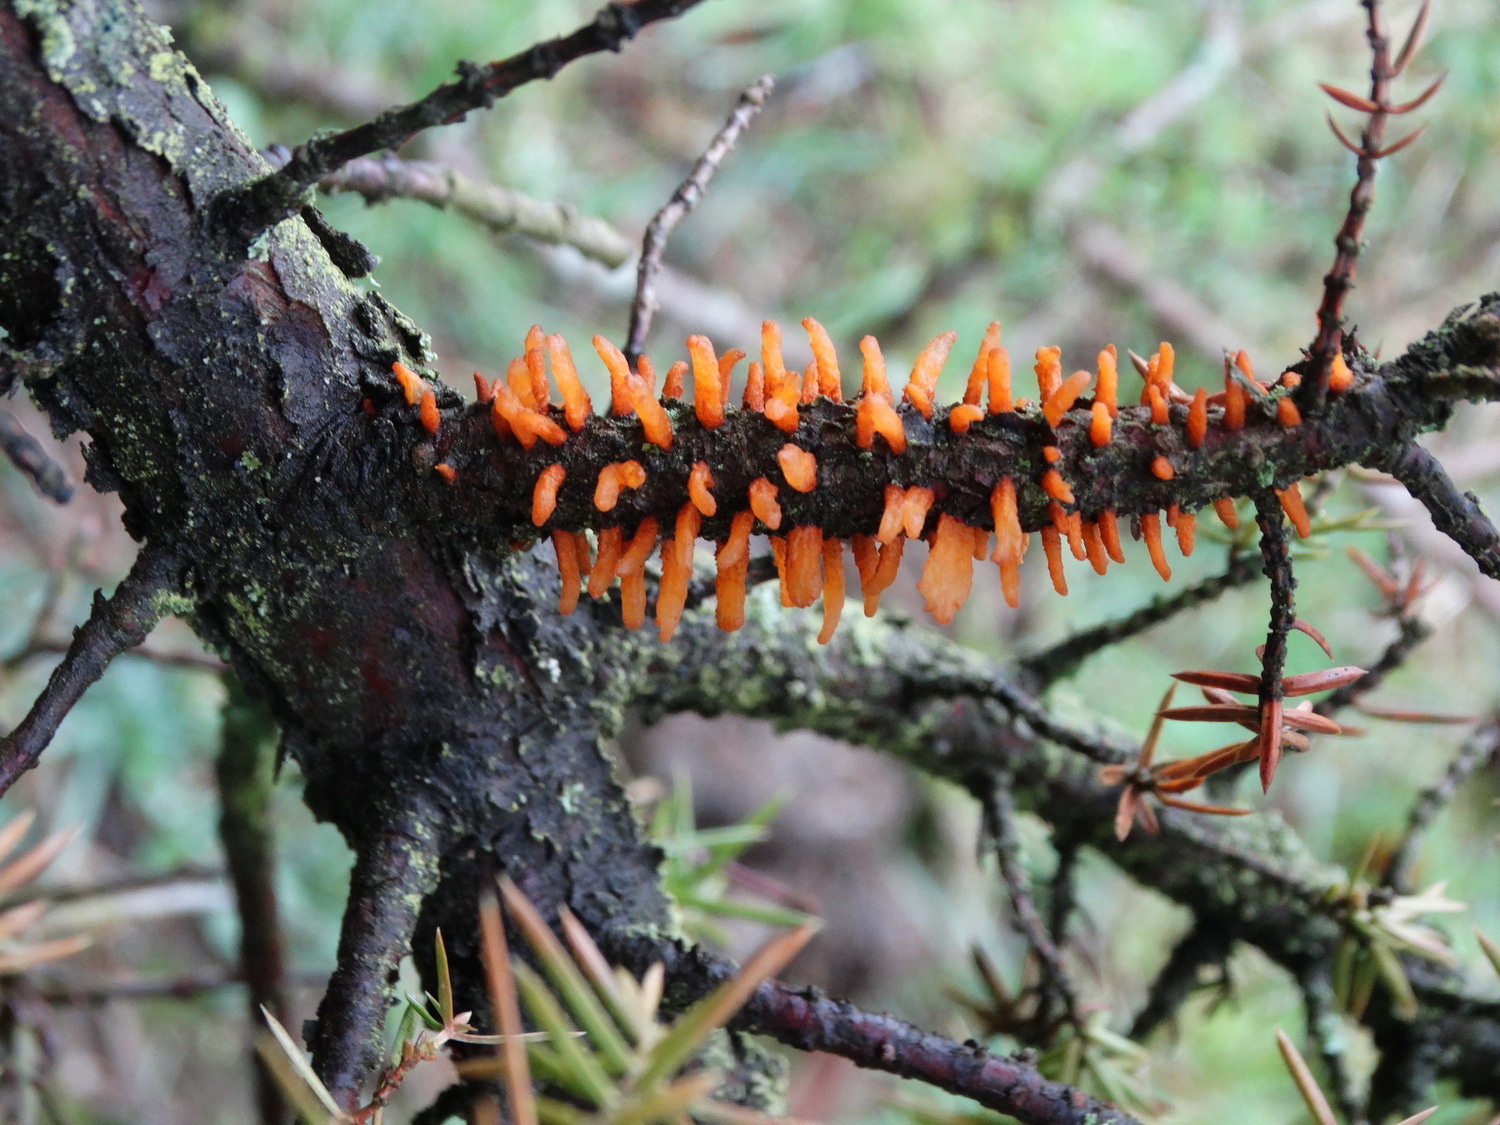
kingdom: Fungi
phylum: Basidiomycota
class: Pucciniomycetes
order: Pucciniales
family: Gymnosporangiaceae
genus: Gymnosporangium
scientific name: Gymnosporangium clavariiforme
